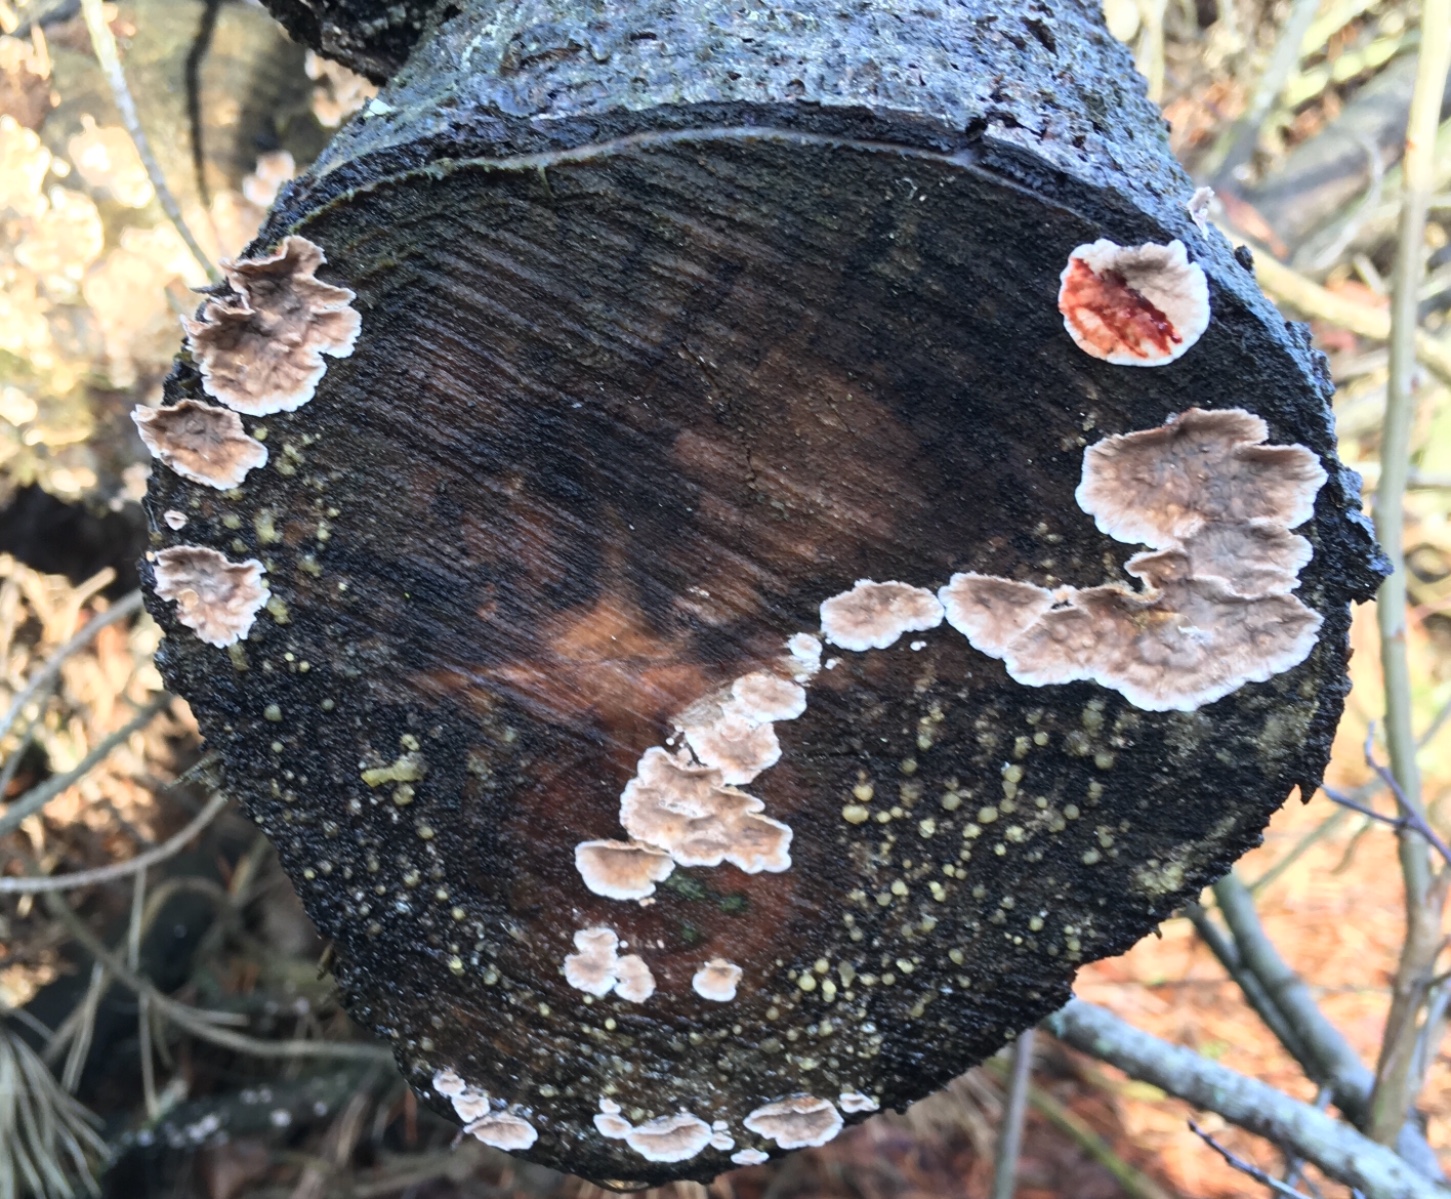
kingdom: Fungi
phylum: Basidiomycota
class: Agaricomycetes
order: Russulales
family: Stereaceae
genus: Stereum
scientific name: Stereum sanguinolentum
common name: blødende lædersvamp
